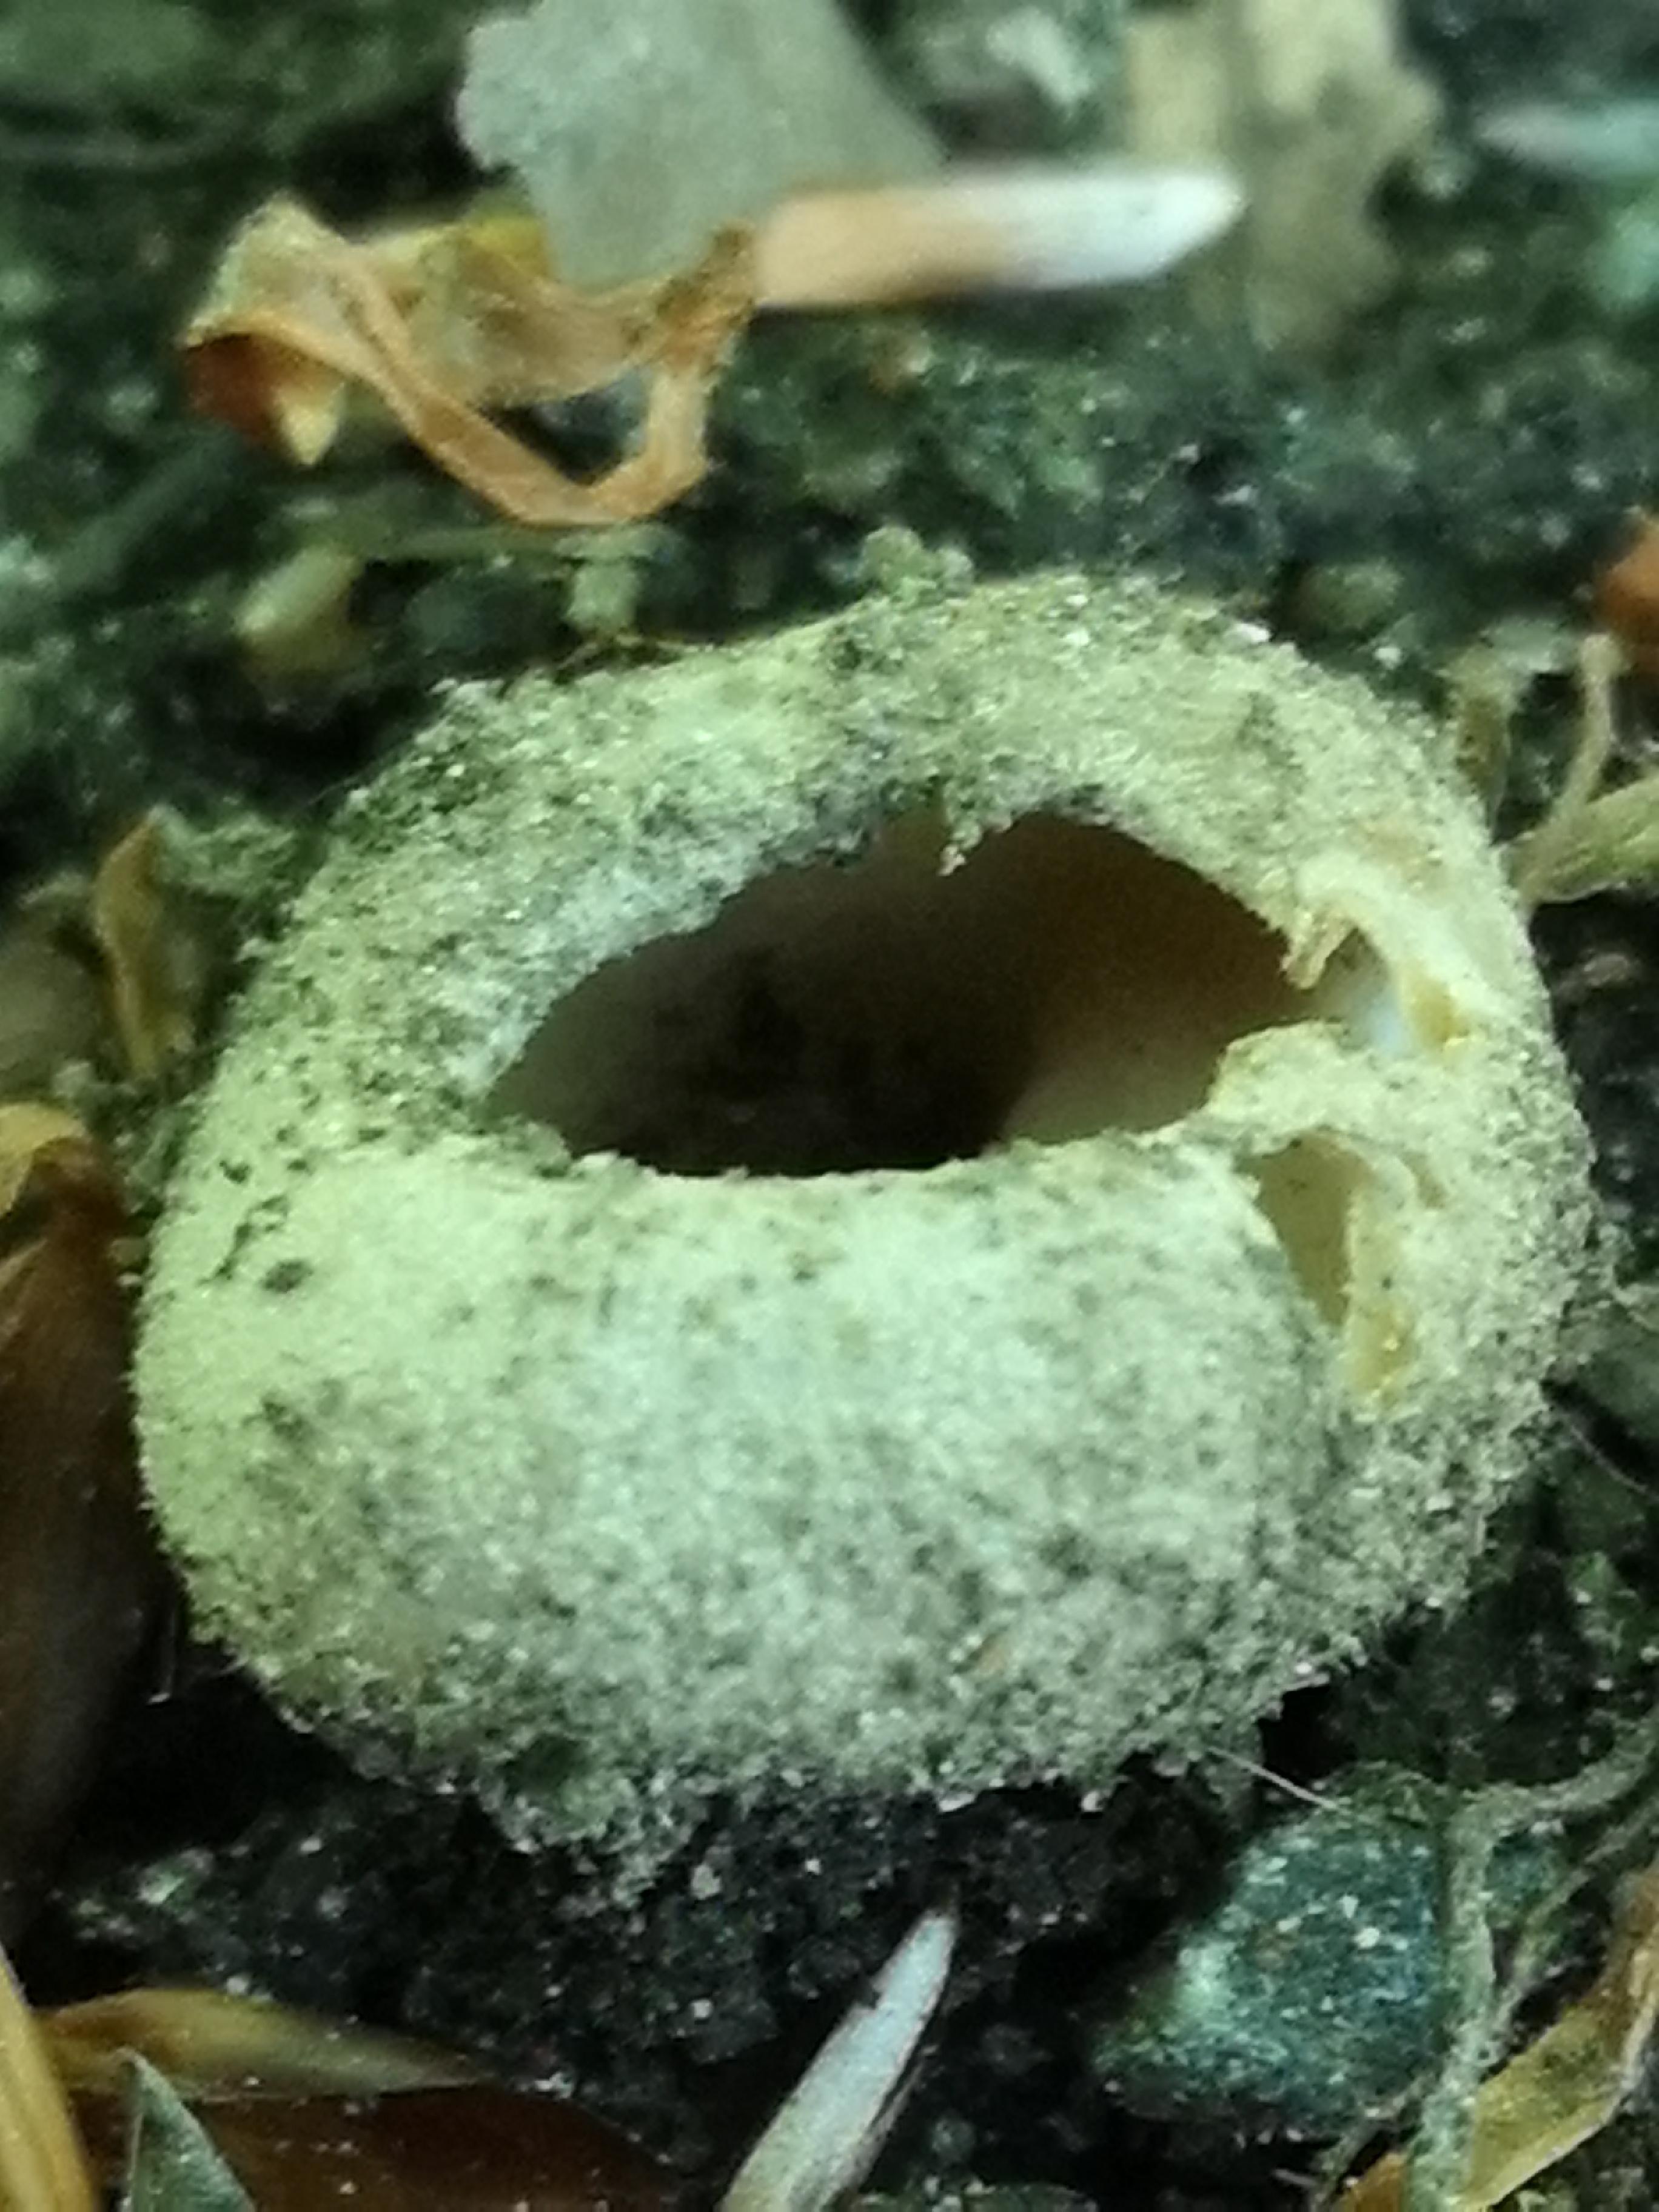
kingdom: Fungi
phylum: Ascomycota
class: Pezizomycetes
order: Pezizales
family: Pyronemataceae
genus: Tarzetta
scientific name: Tarzetta cupularis
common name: gulbrun pokalbæger
